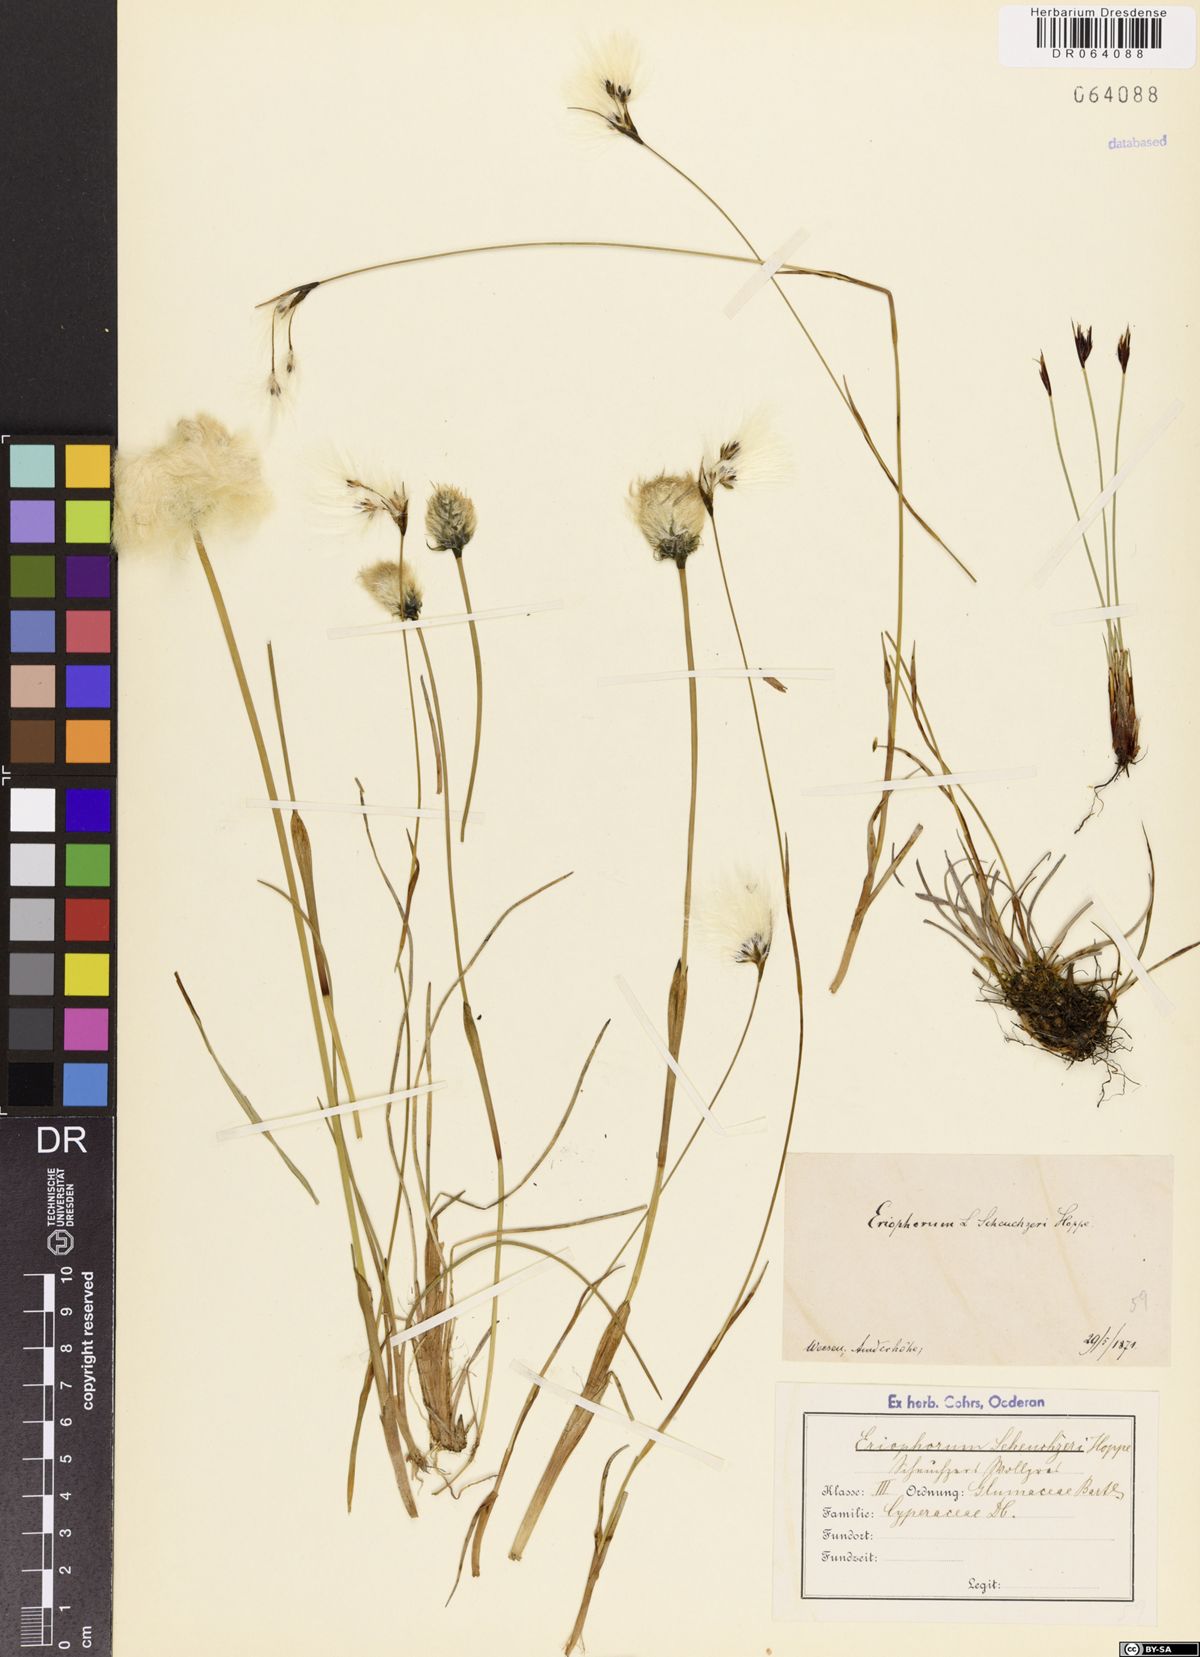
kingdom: Plantae
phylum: Tracheophyta
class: Liliopsida
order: Poales
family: Cyperaceae
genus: Eriophorum
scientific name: Eriophorum scheuchzeri
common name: Scheuchzer's cottongrass
